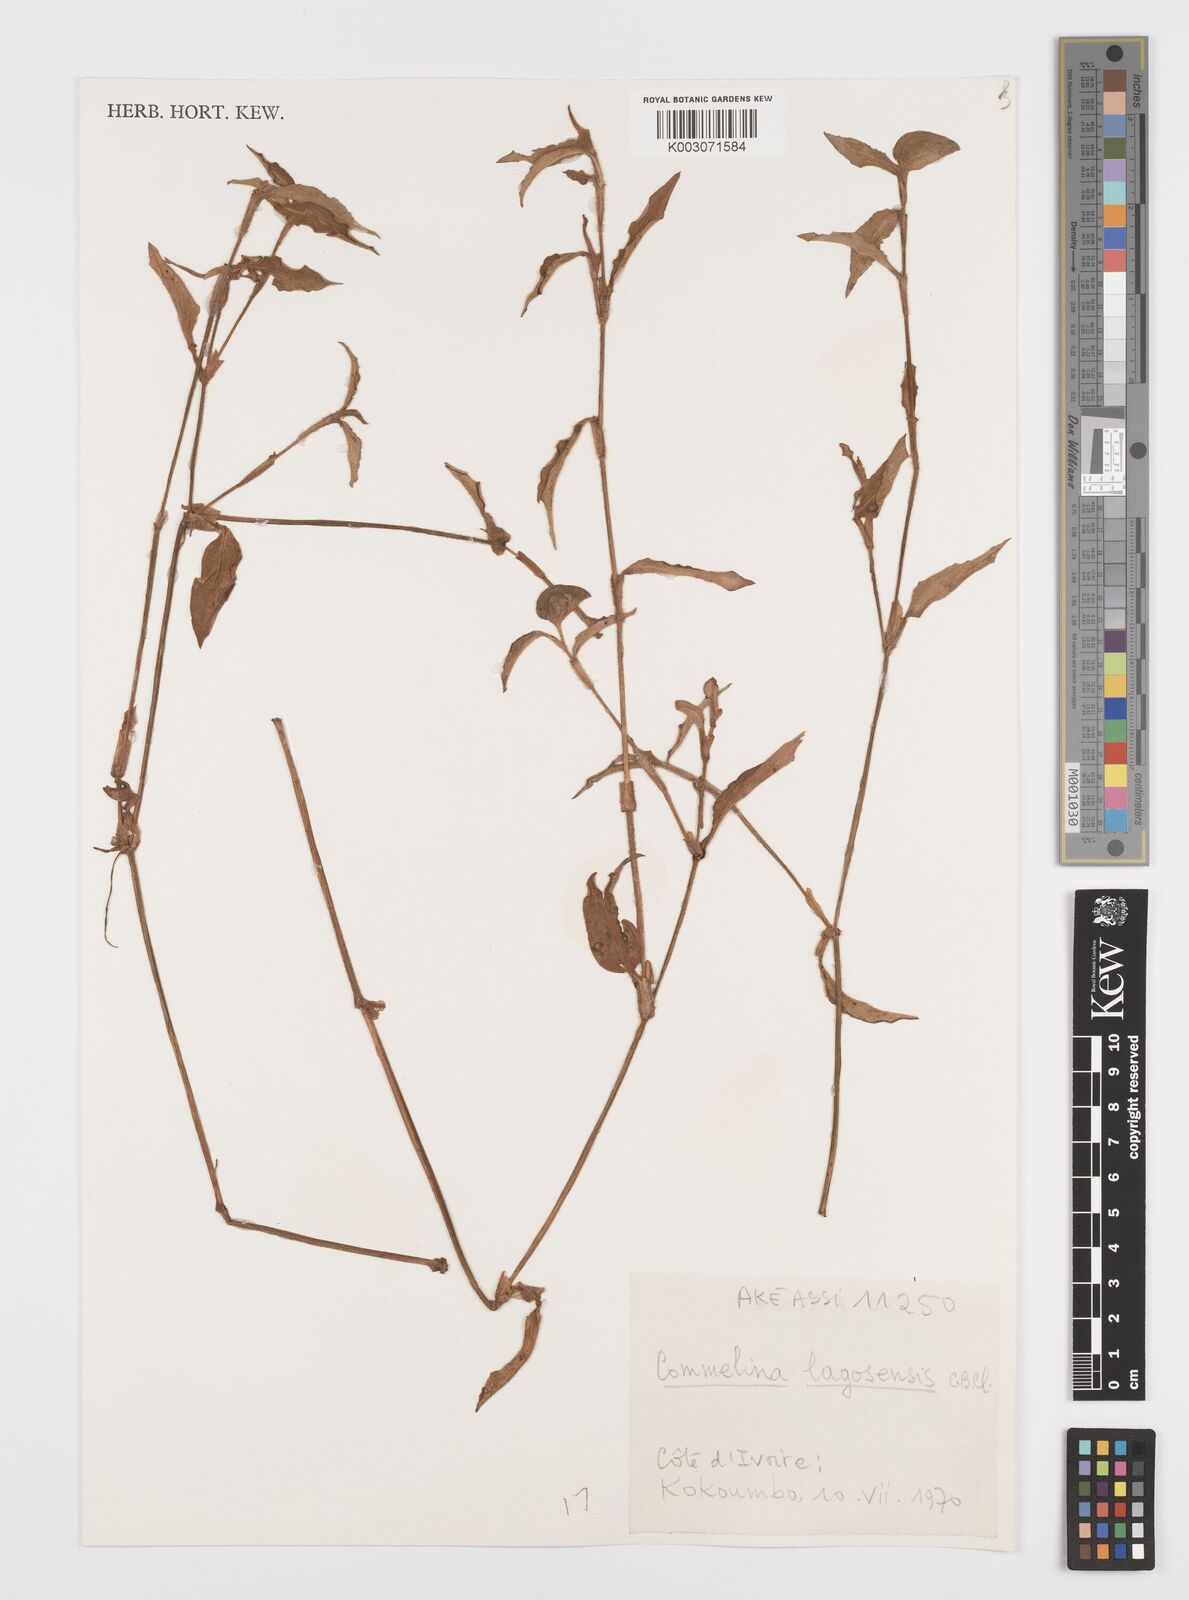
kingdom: Plantae
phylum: Tracheophyta
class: Liliopsida
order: Commelinales
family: Commelinaceae
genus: Commelina
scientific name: Commelina bracteosa
